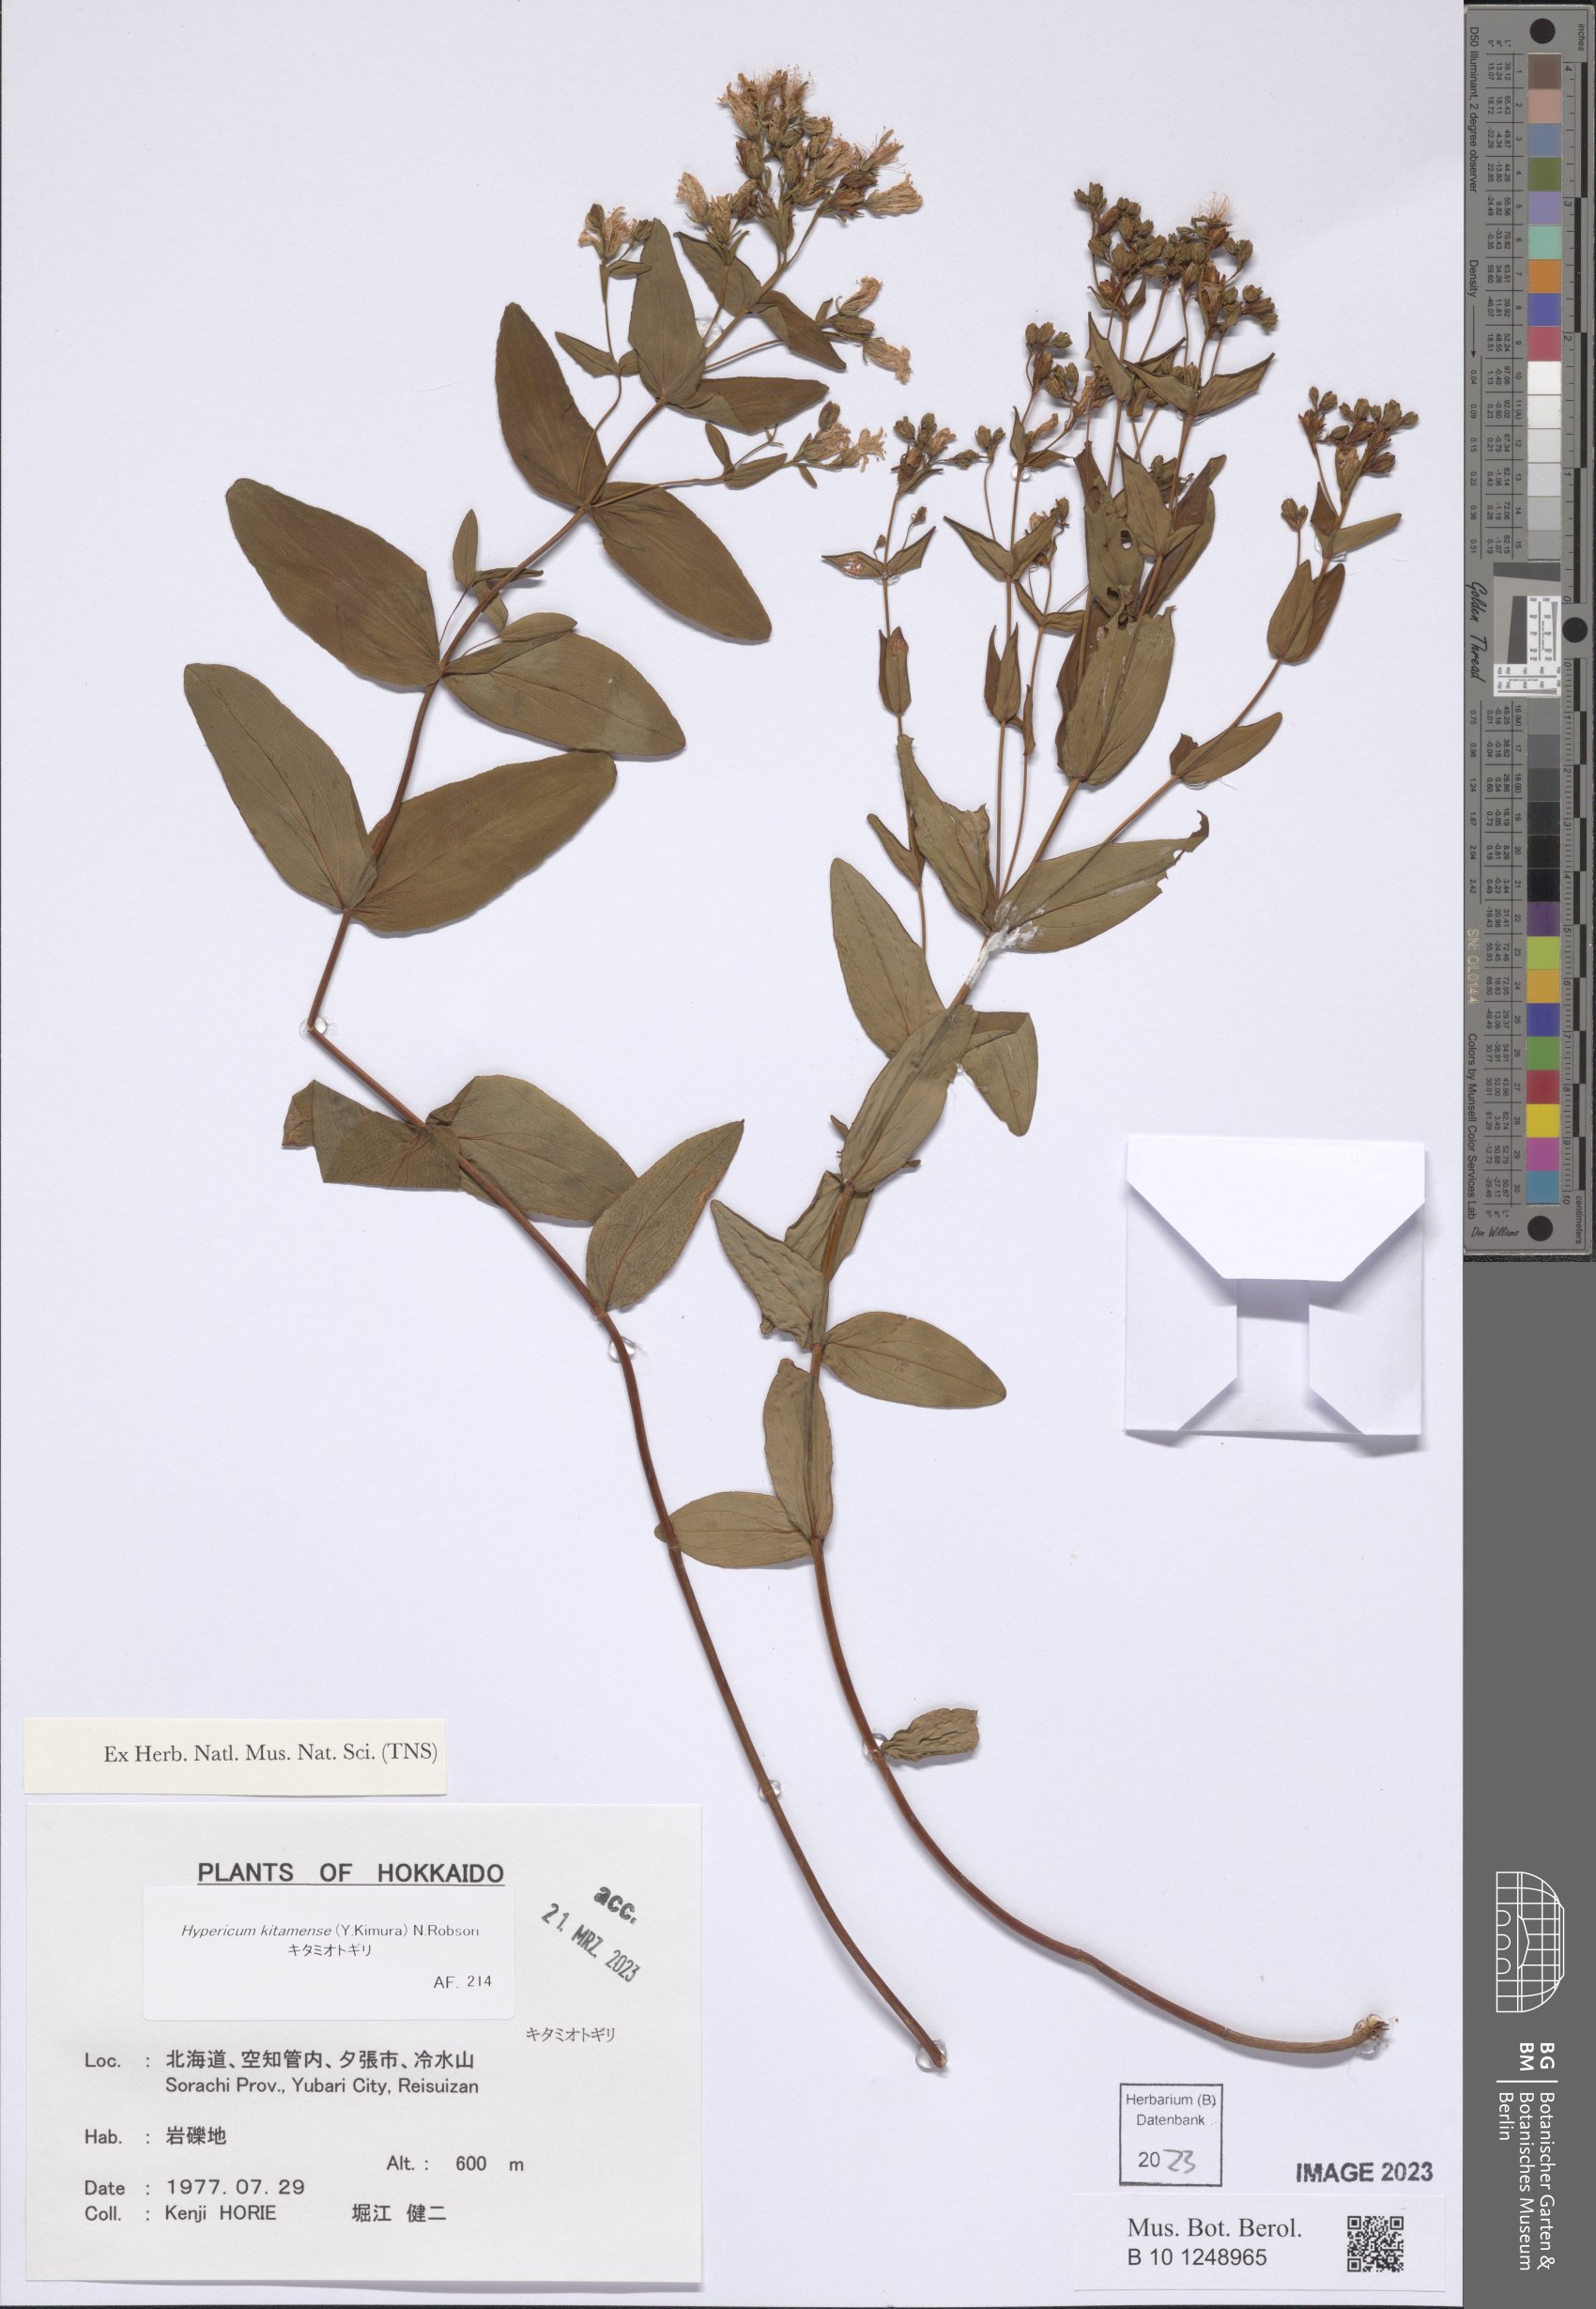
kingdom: Plantae
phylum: Tracheophyta
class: Magnoliopsida
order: Malpighiales
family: Hypericaceae
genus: Hypericum
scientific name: Hypericum kitamense
